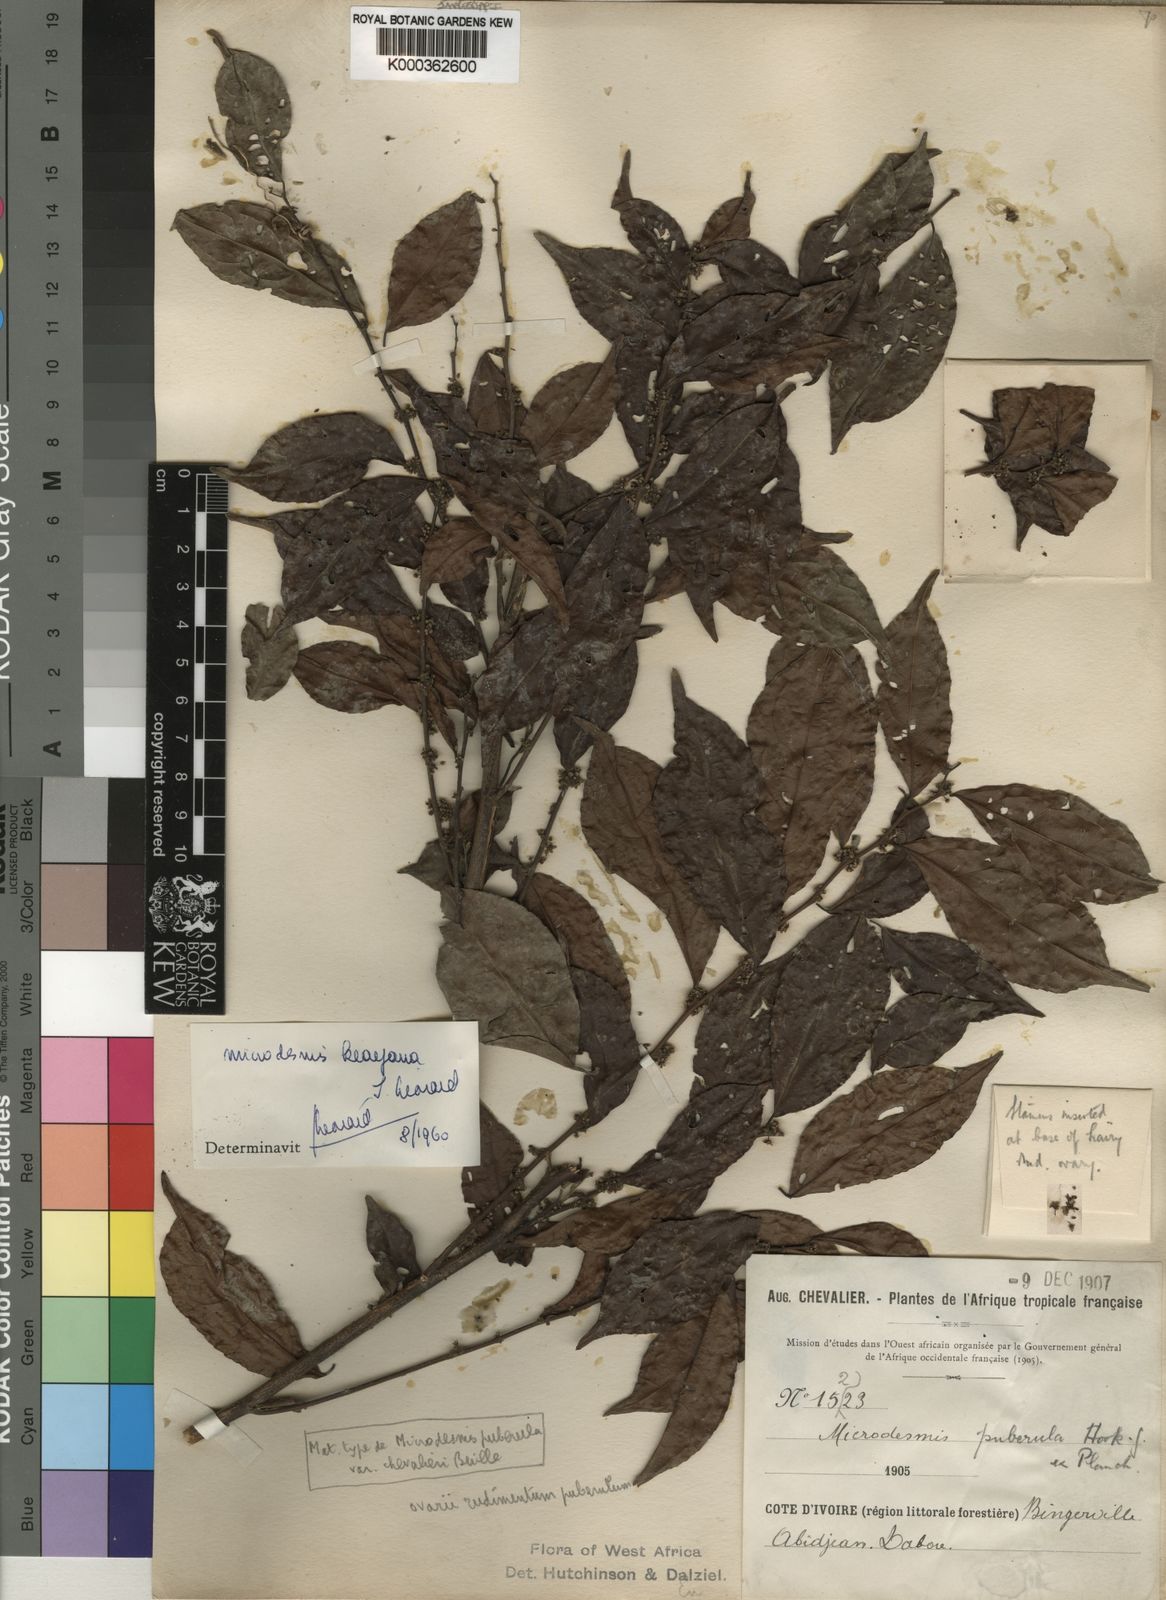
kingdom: Plantae
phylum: Tracheophyta
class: Magnoliopsida
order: Malpighiales
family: Pandaceae
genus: Microdesmis
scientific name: Microdesmis
